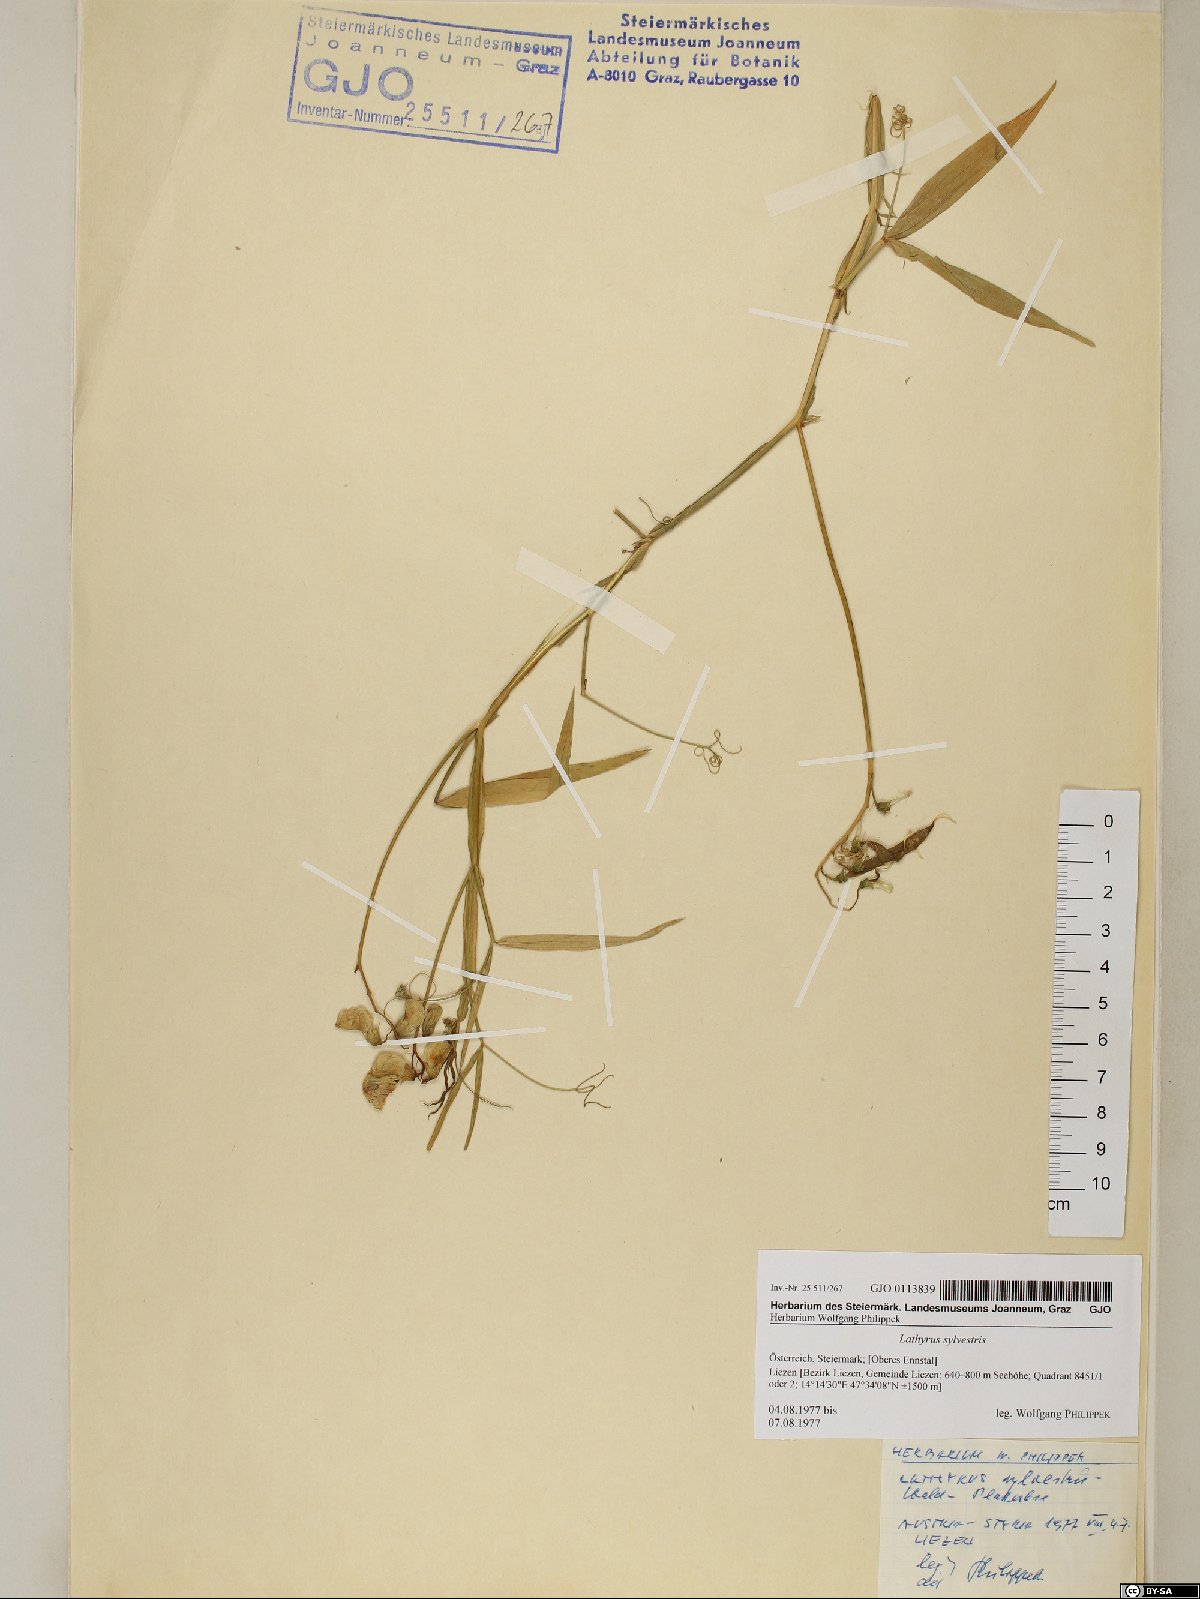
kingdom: Plantae
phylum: Tracheophyta
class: Magnoliopsida
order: Fabales
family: Fabaceae
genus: Lathyrus
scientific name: Lathyrus sylvestris
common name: Flat pea
